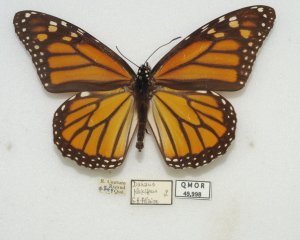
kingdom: Animalia
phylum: Arthropoda
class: Insecta
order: Lepidoptera
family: Nymphalidae
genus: Danaus
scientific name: Danaus plexippus
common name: Monarch
